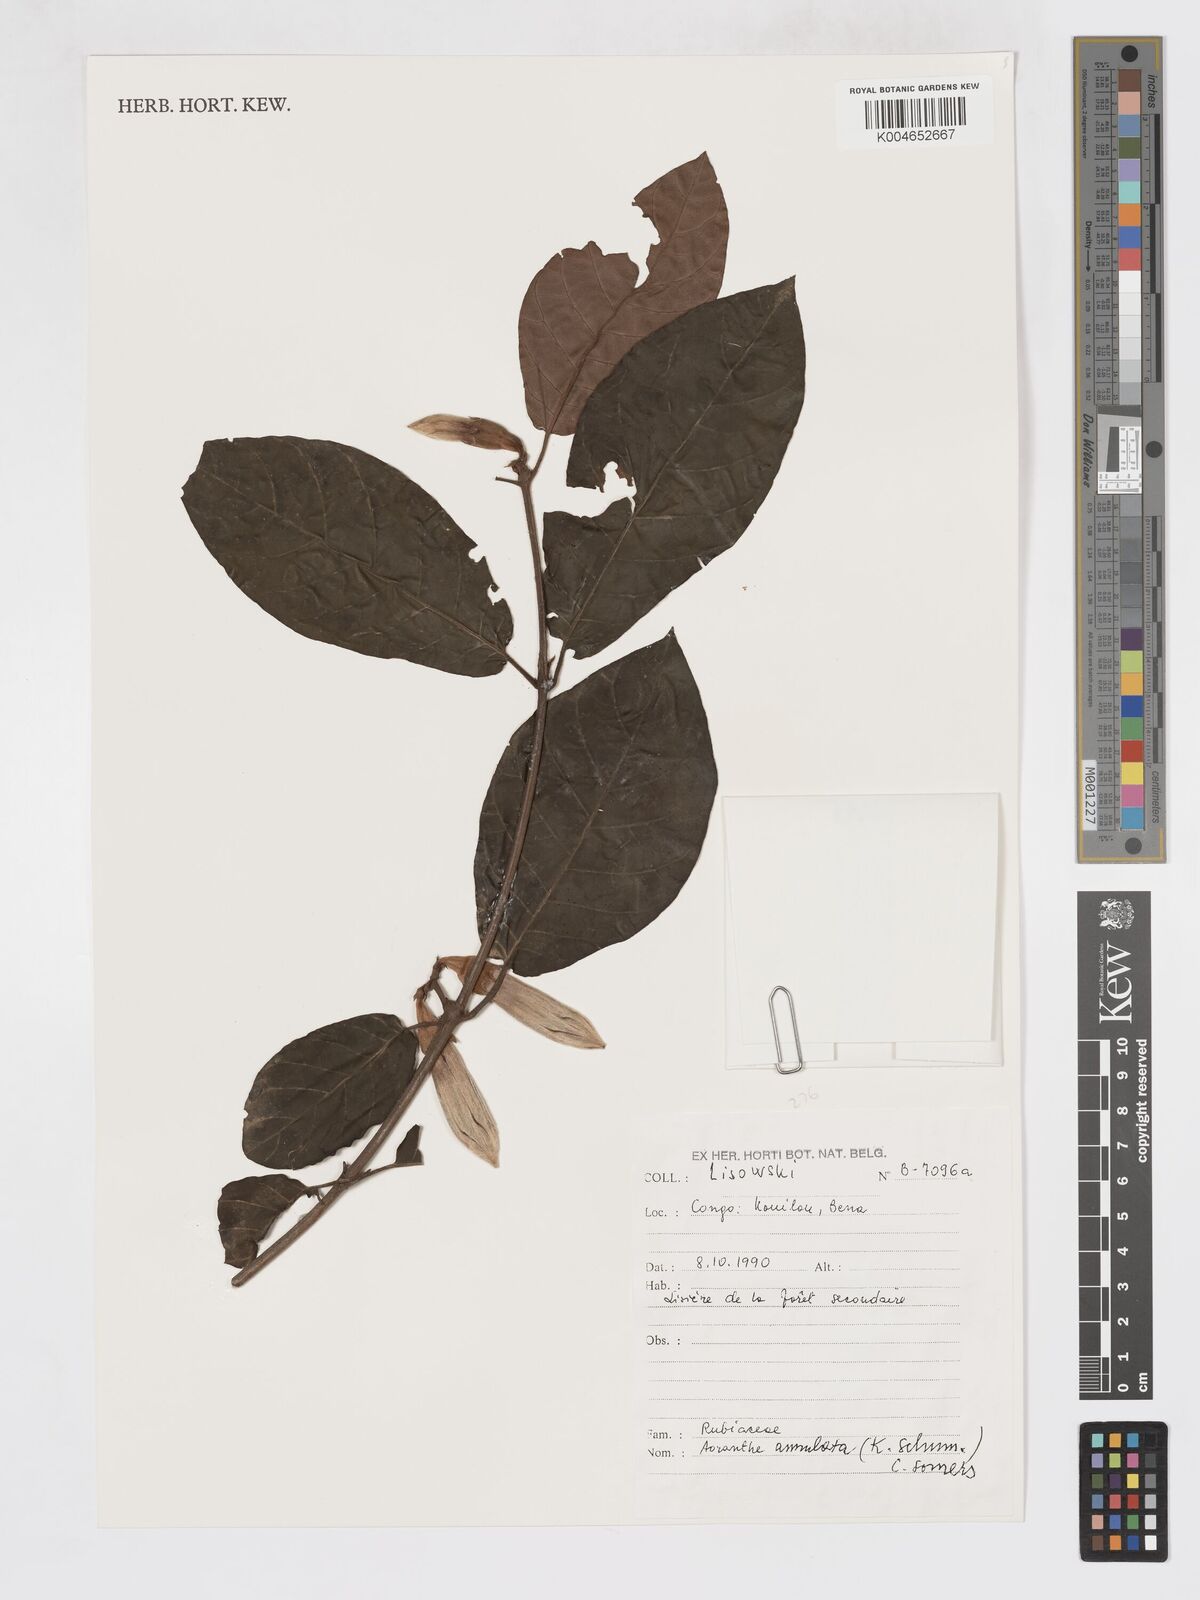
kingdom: Plantae
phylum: Tracheophyta
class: Magnoliopsida
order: Gentianales
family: Rubiaceae
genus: Aoranthe
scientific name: Aoranthe annulata
